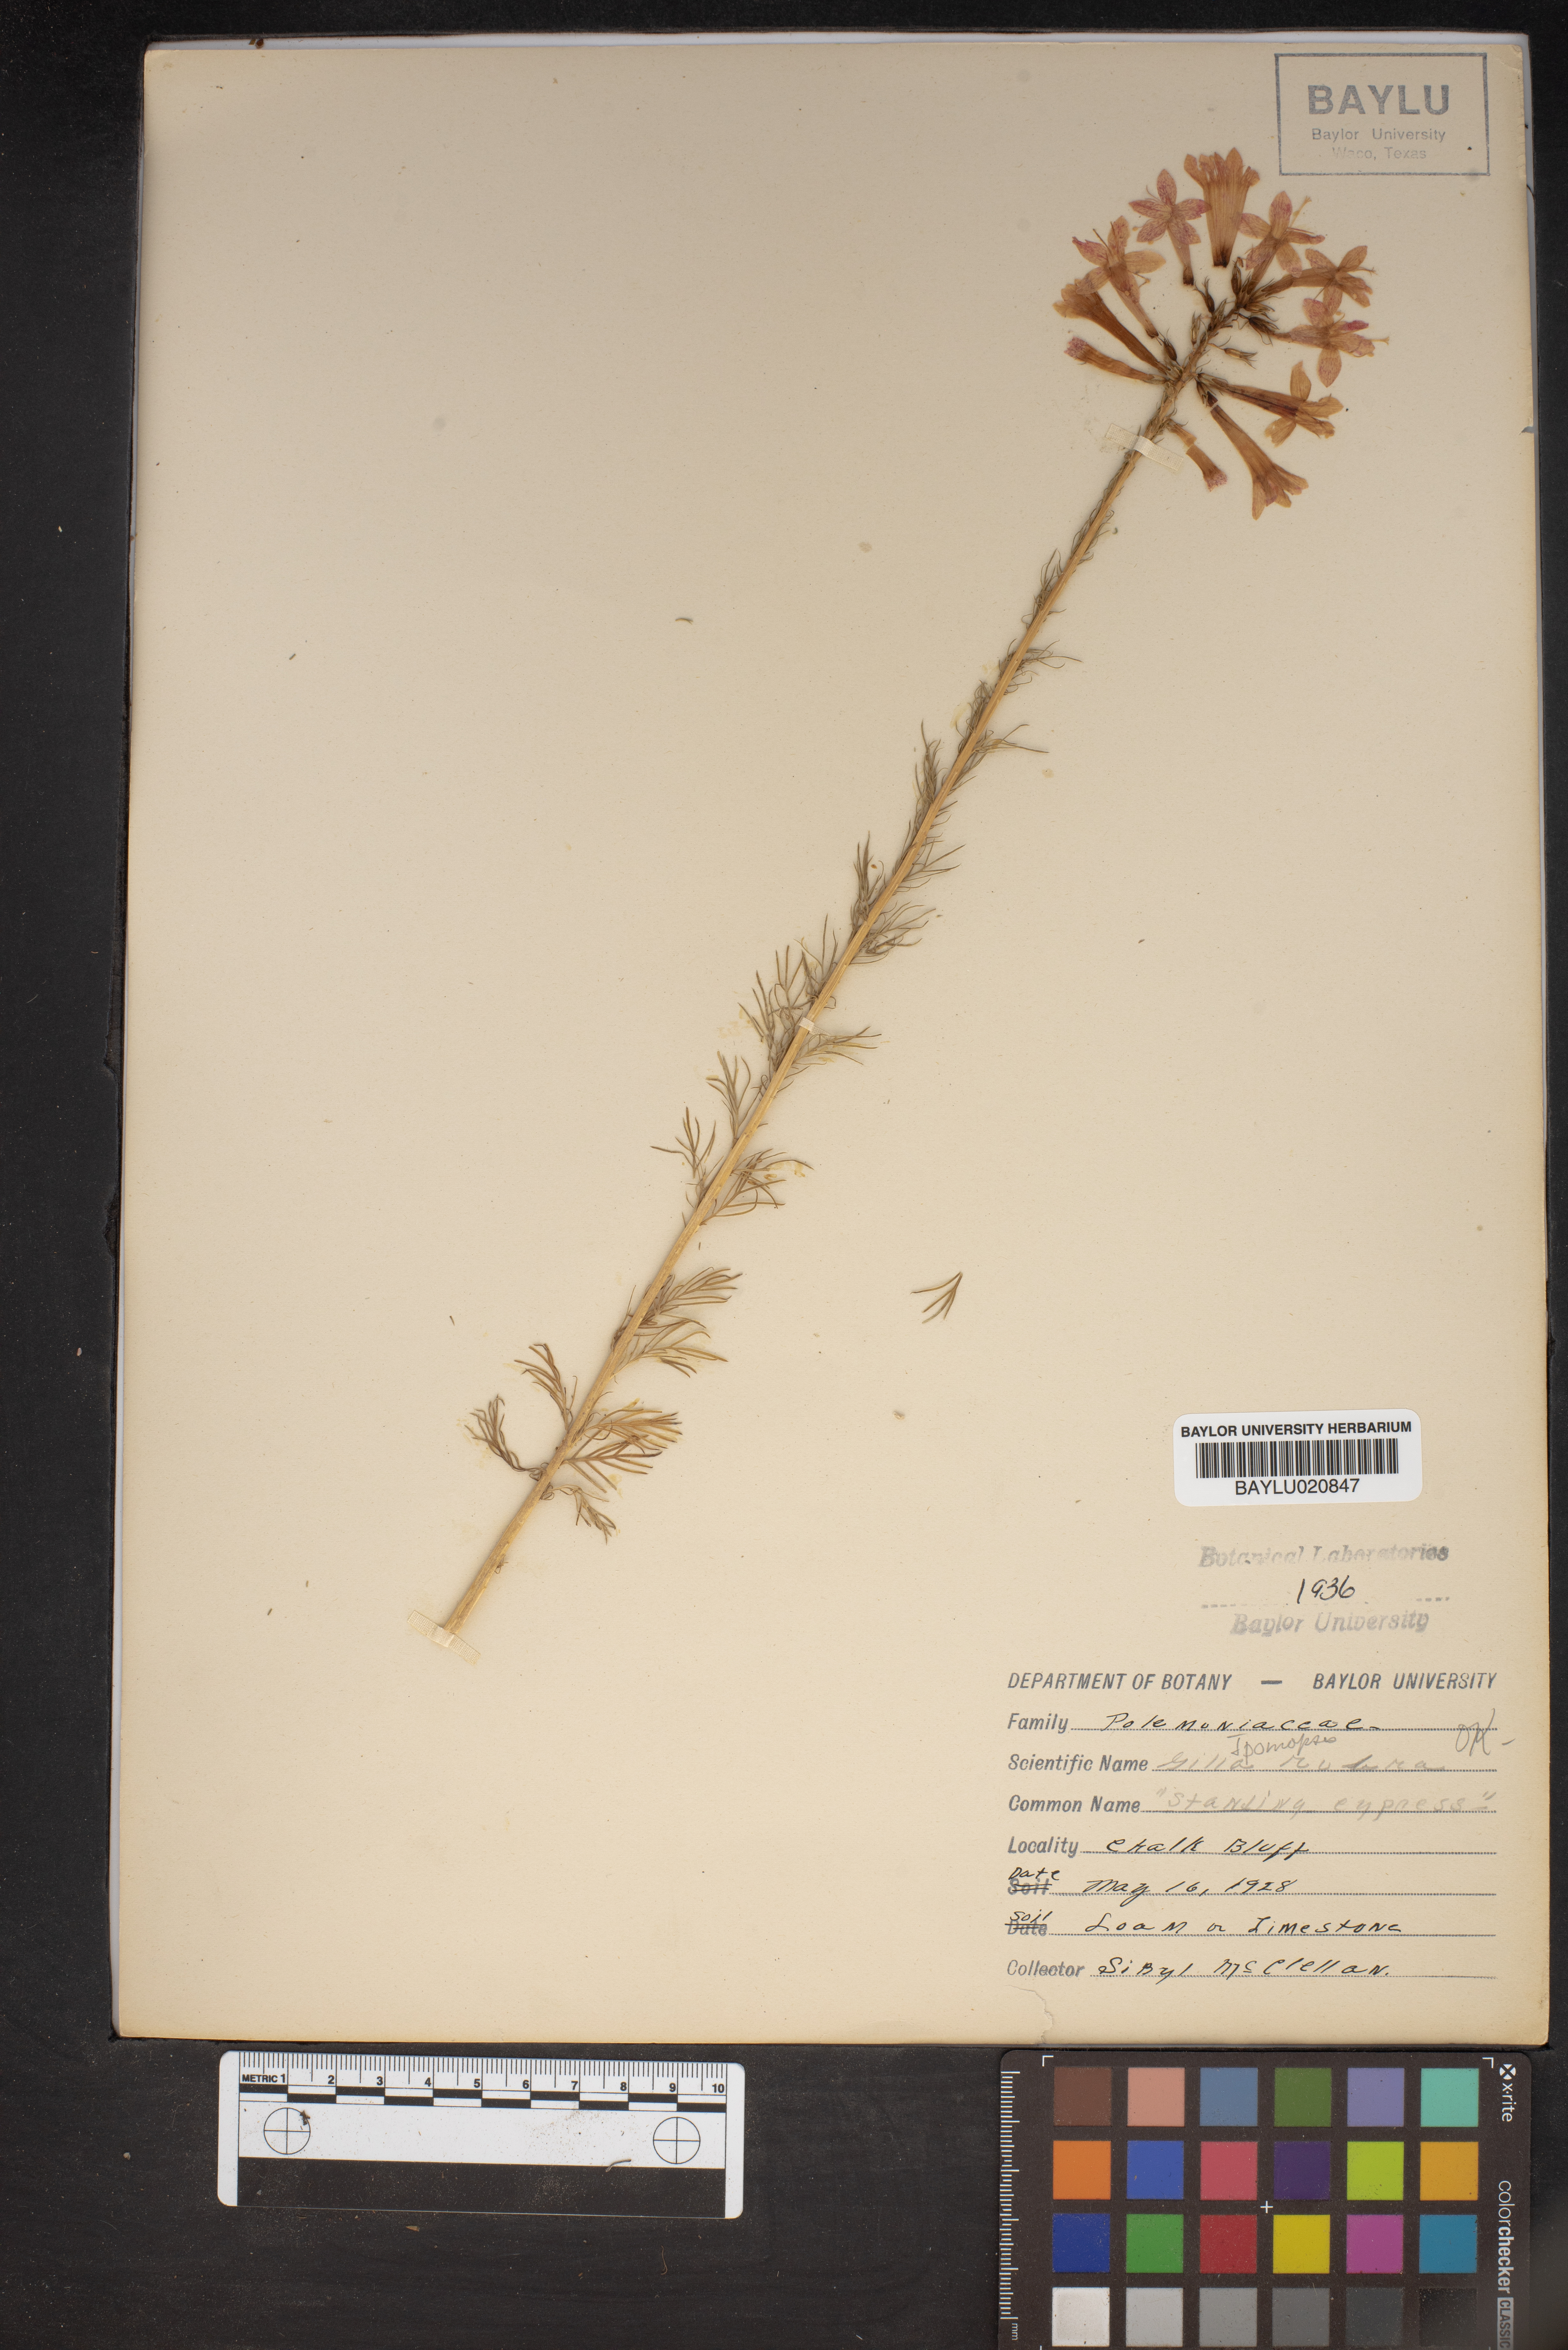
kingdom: Plantae
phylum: Tracheophyta
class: Magnoliopsida
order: Ericales
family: Polemoniaceae
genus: Ipomopsis
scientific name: Ipomopsis rubra
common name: Skyrocket
